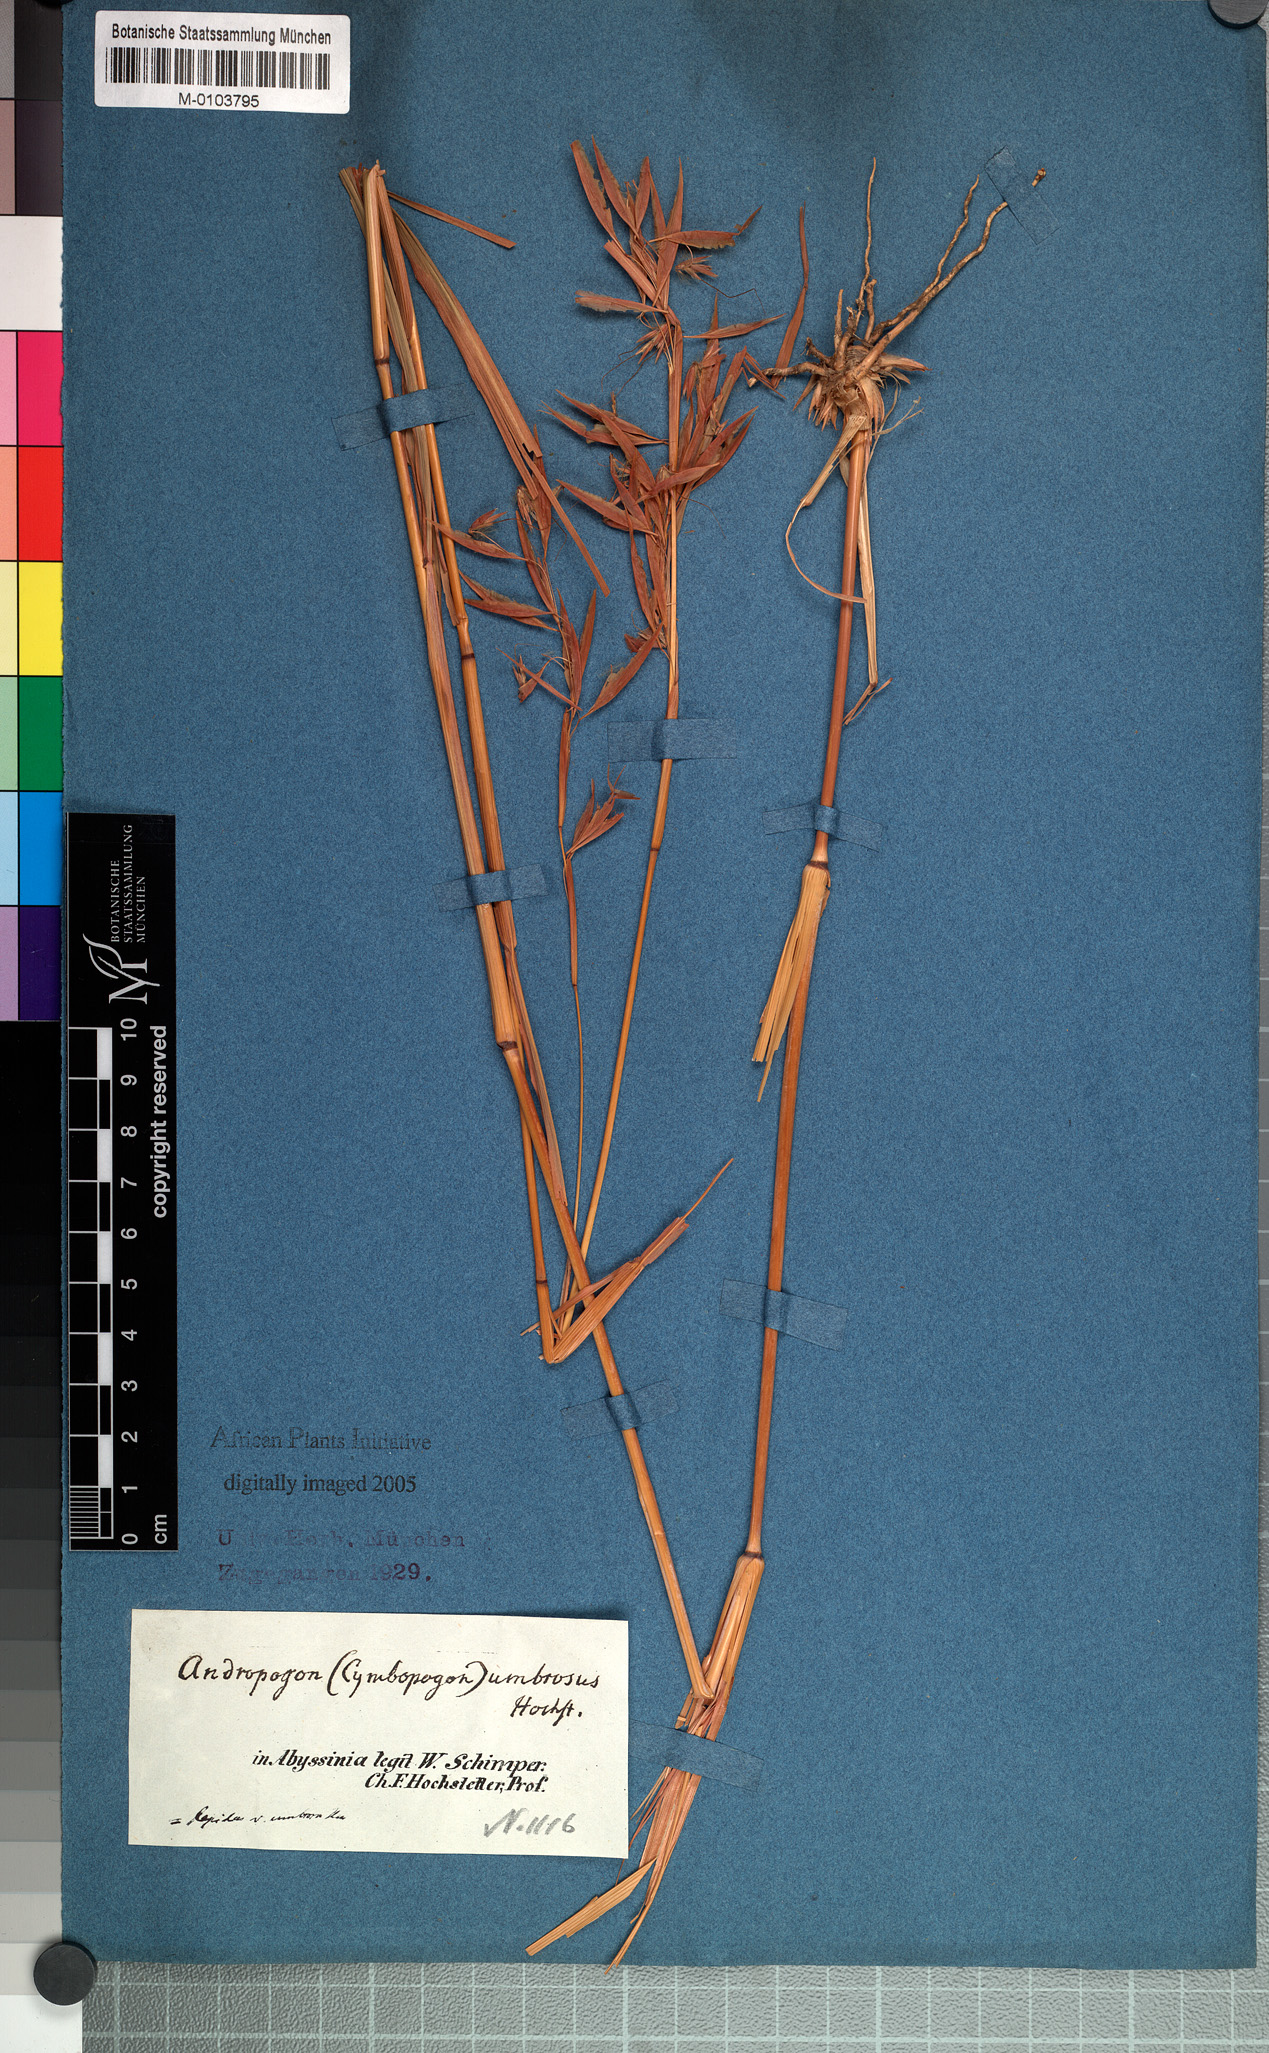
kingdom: Plantae
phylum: Tracheophyta
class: Liliopsida
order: Poales
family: Poaceae
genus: Hyparrhenia
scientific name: Hyparrhenia umbrosa
